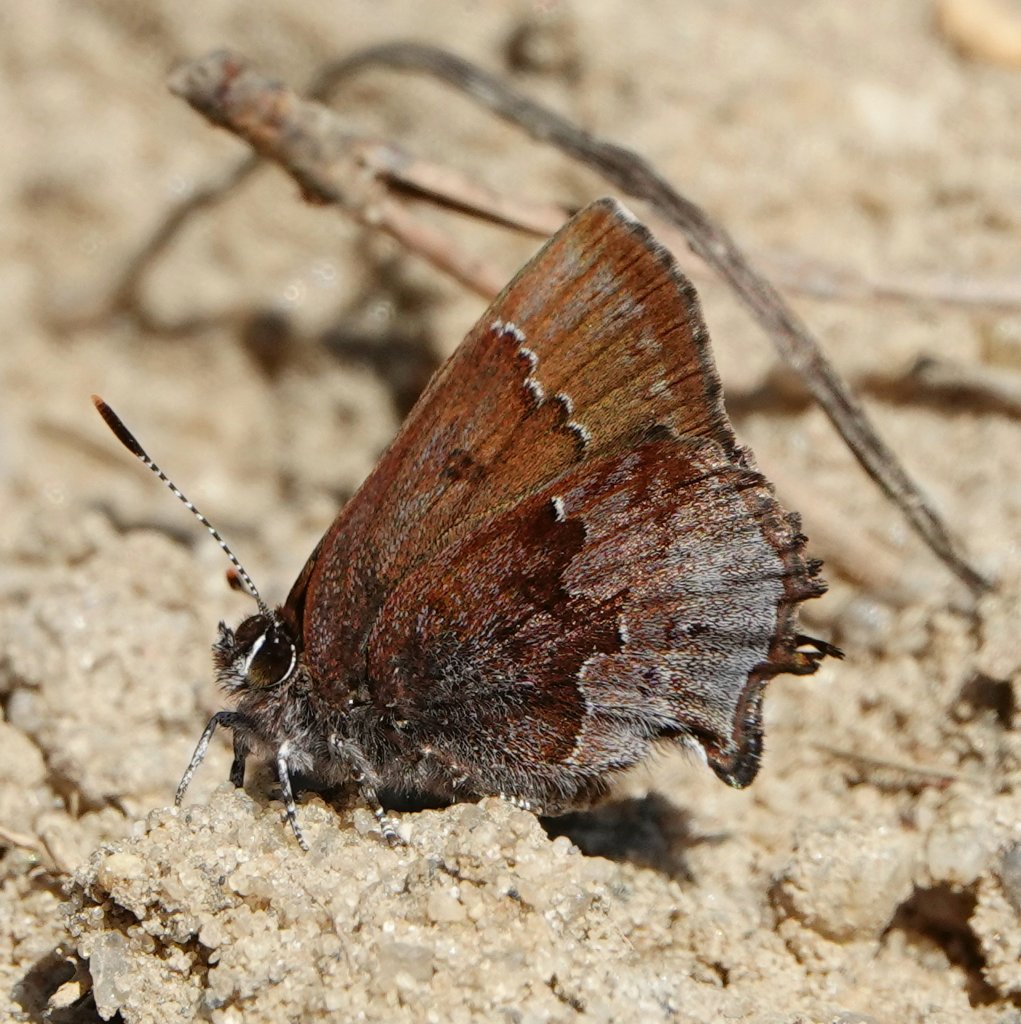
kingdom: Animalia
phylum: Arthropoda
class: Insecta
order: Lepidoptera
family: Lycaenidae
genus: Incisalia
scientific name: Incisalia henrici
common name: Henry's Elfin
